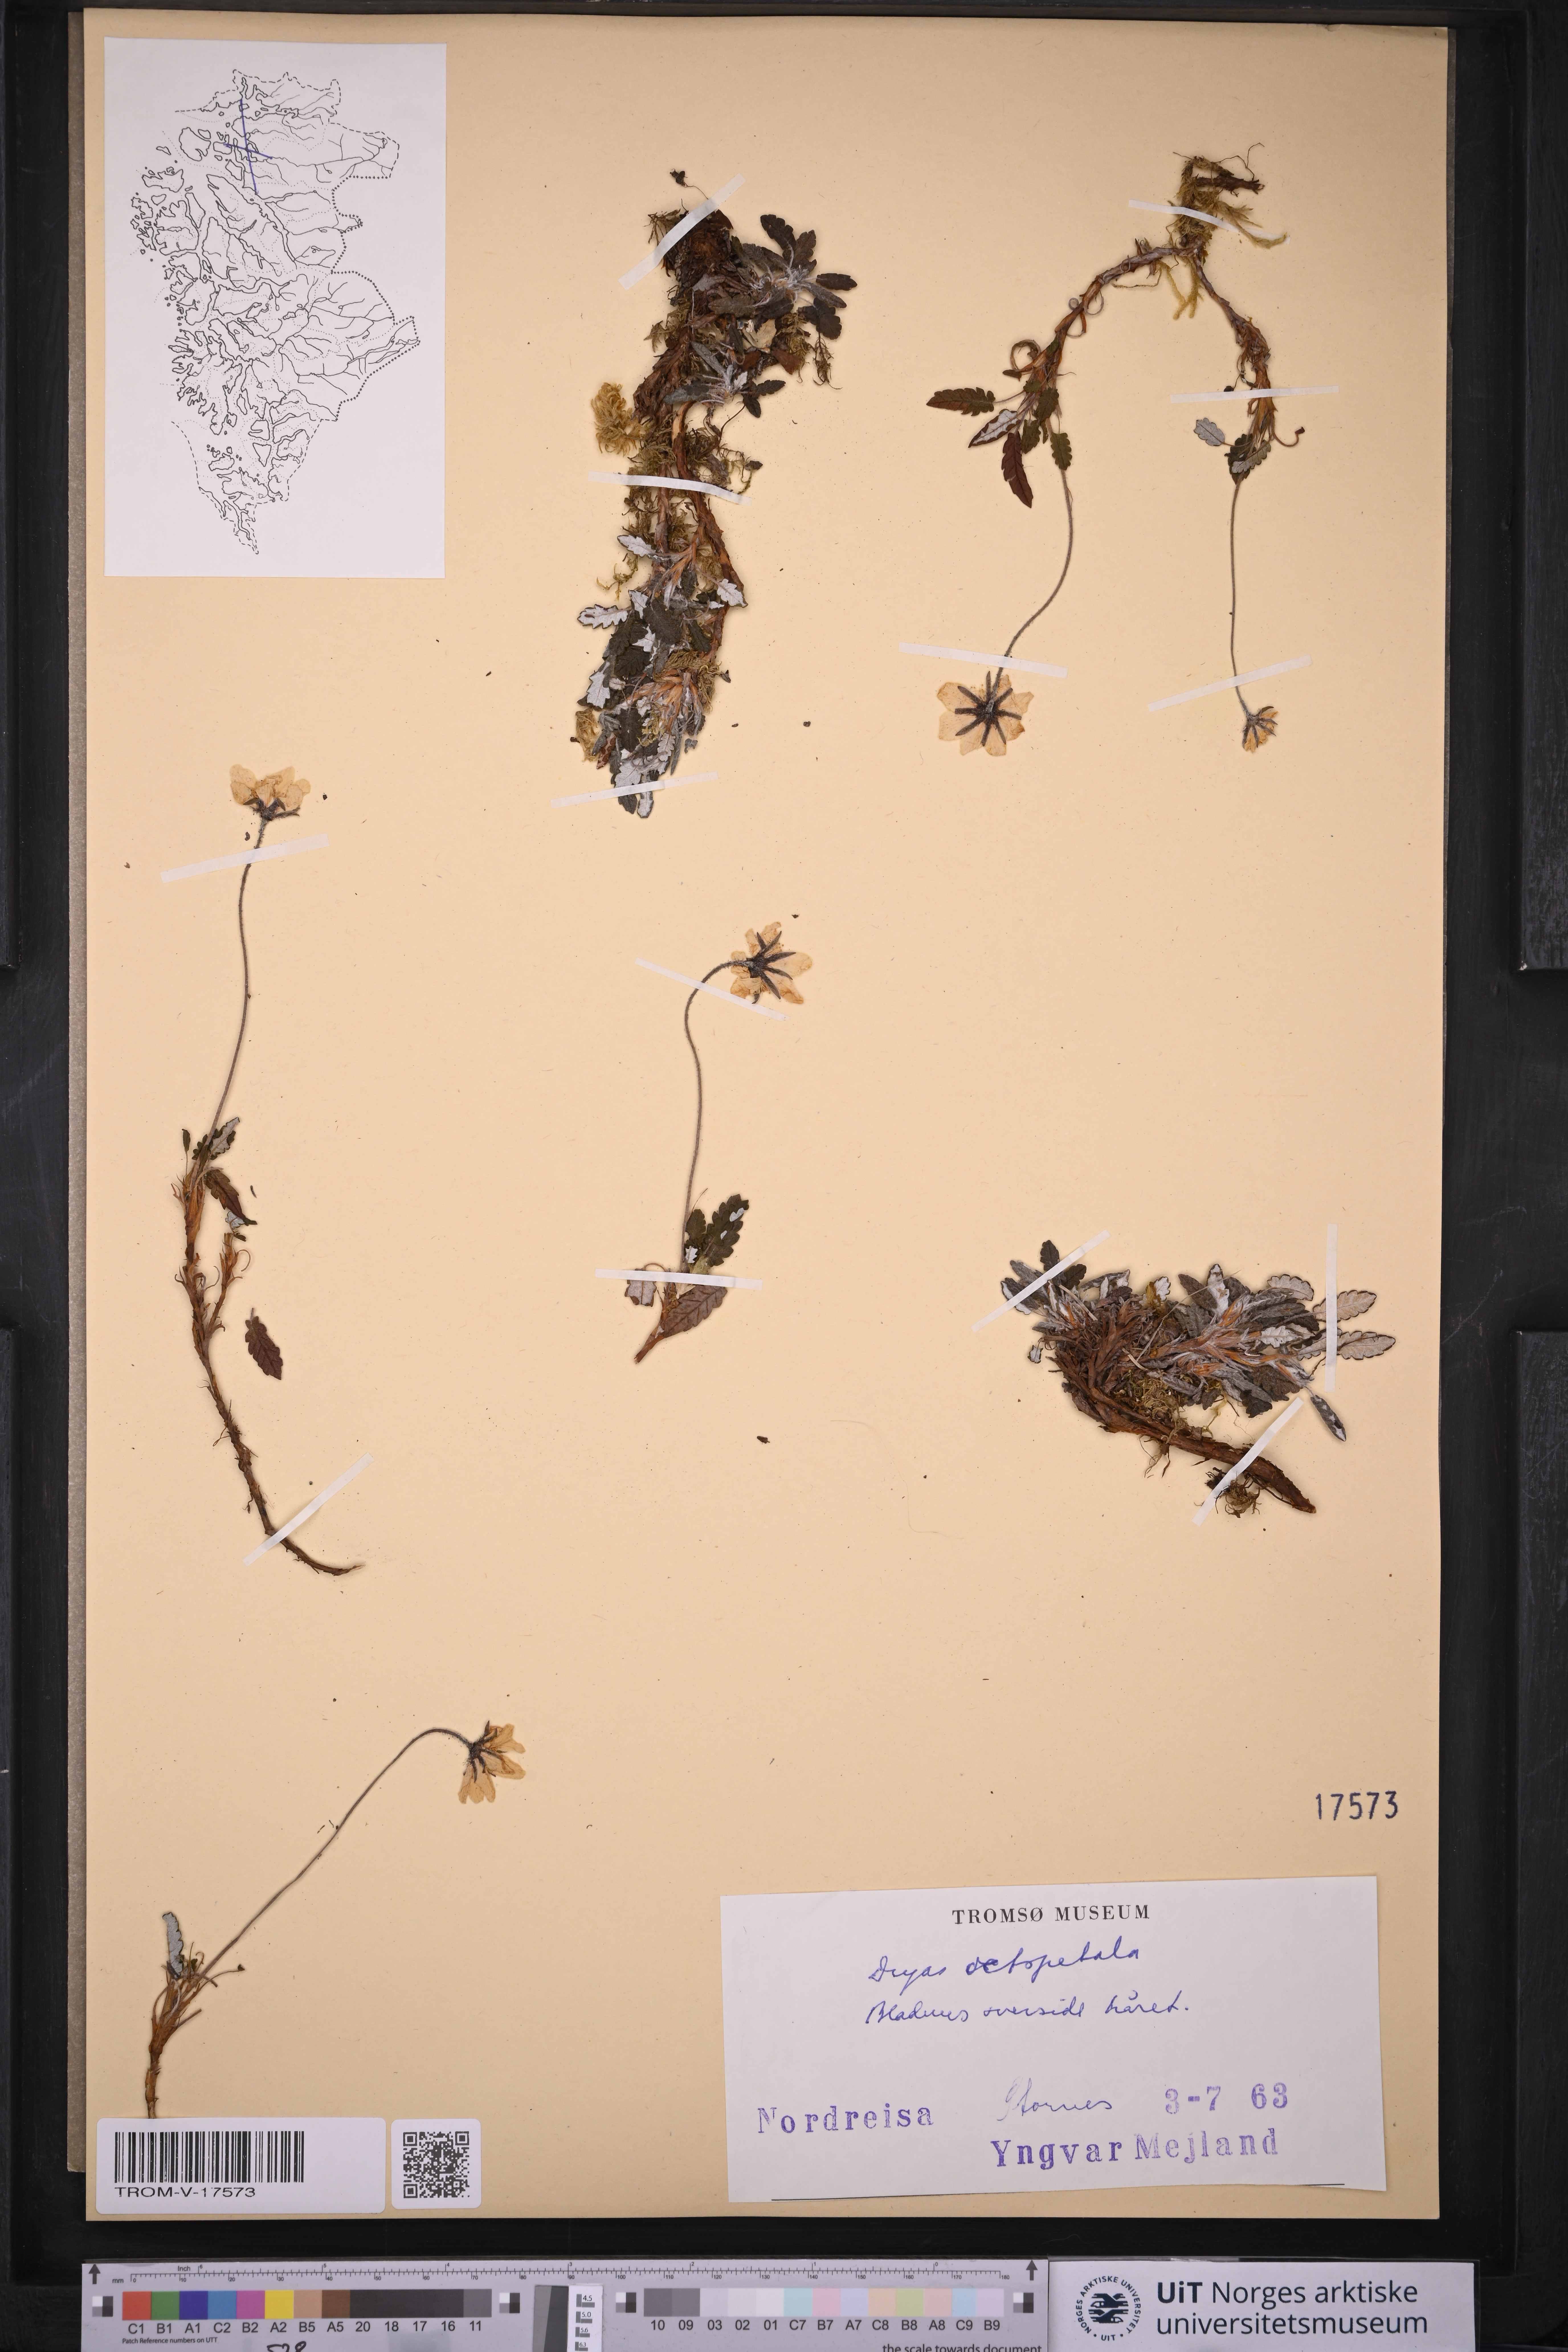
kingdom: Plantae
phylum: Tracheophyta
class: Magnoliopsida
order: Rosales
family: Rosaceae
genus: Dryas
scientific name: Dryas octopetala
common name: Eight-petal mountain-avens
